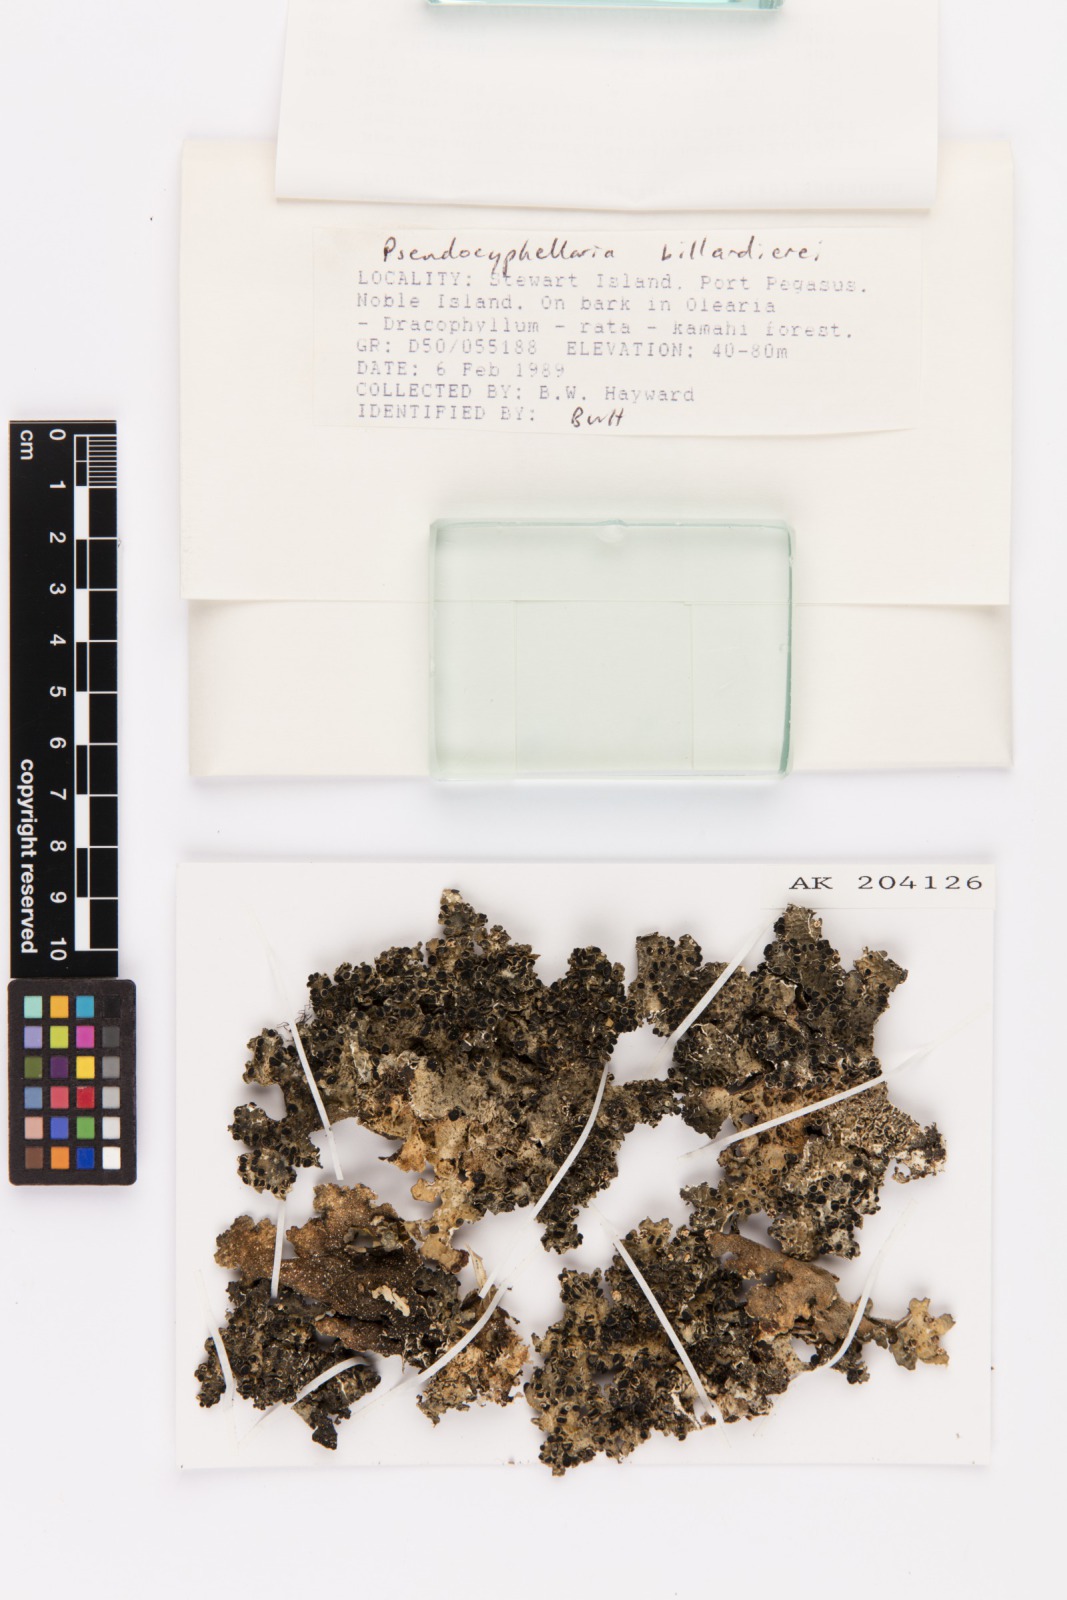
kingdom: Fungi
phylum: Ascomycota
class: Lecanoromycetes
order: Peltigerales
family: Lobariaceae
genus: Pseudocyphellaria
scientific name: Pseudocyphellaria billardierei
